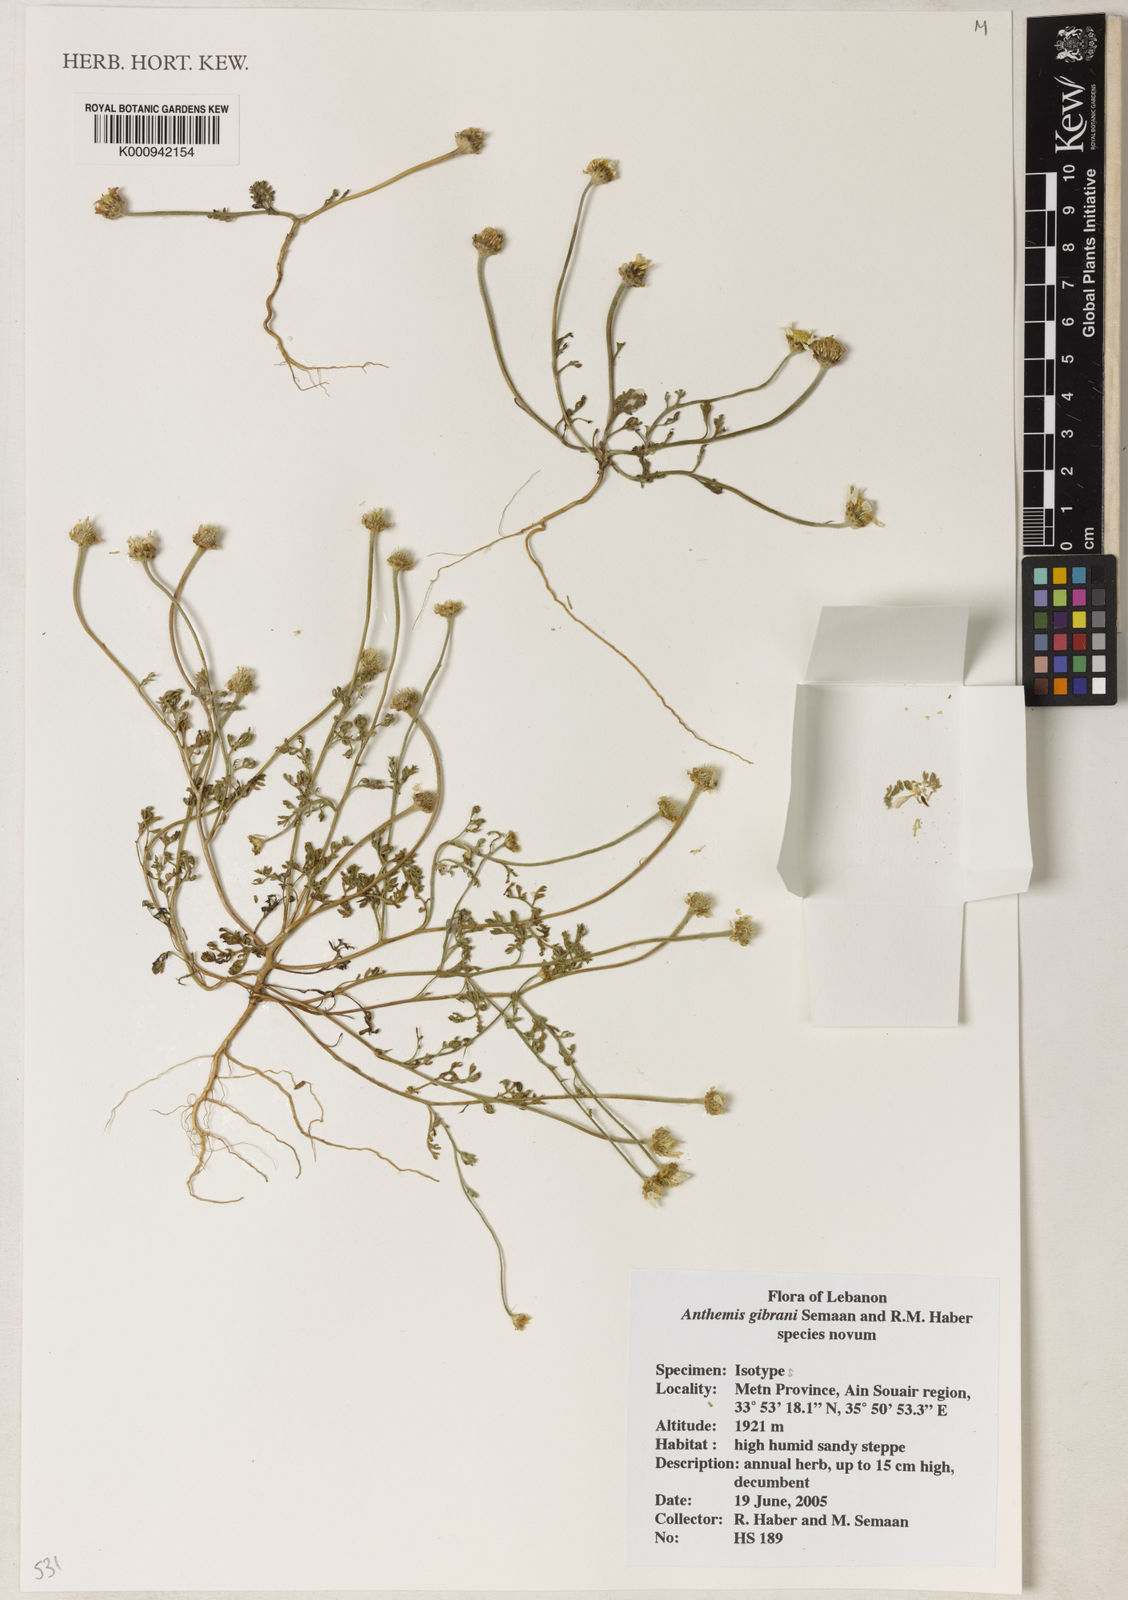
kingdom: Plantae
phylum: Tracheophyta
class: Magnoliopsida
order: Asterales
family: Asteraceae
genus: Anacyclus
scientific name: Anacyclus
